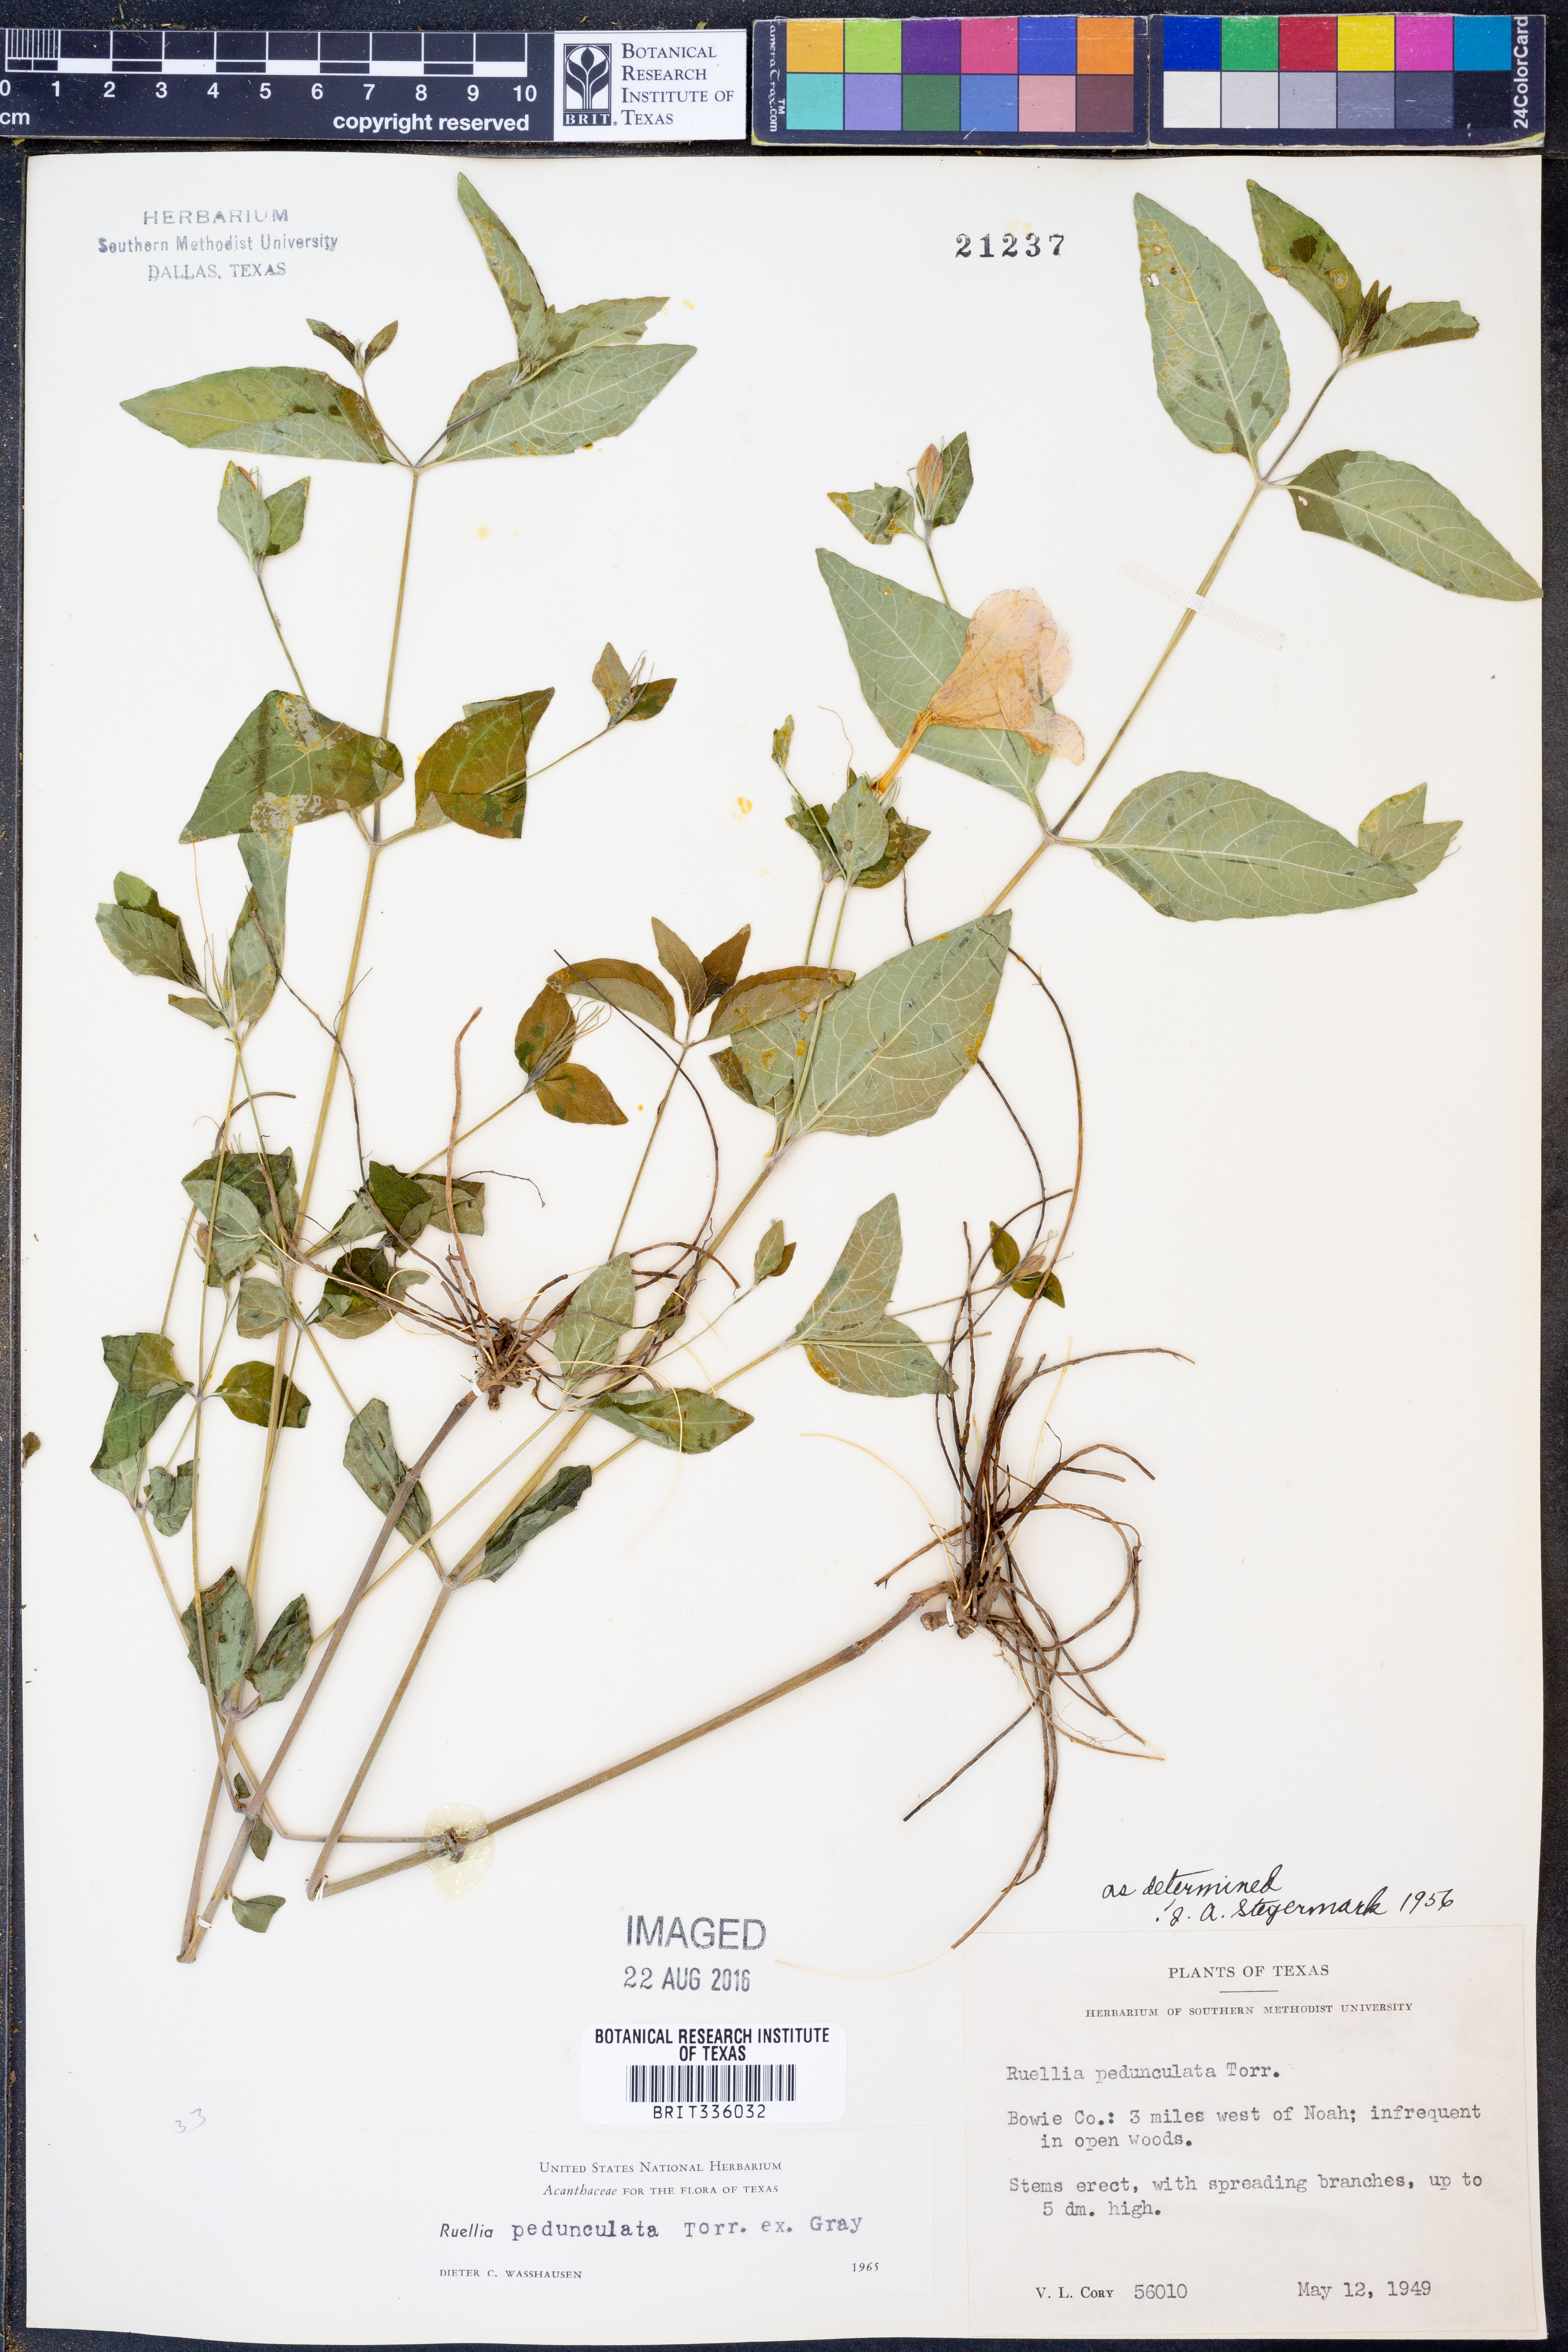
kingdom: Plantae
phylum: Tracheophyta
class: Magnoliopsida
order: Lamiales
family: Acanthaceae
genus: Ruellia
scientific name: Ruellia pedunculata
